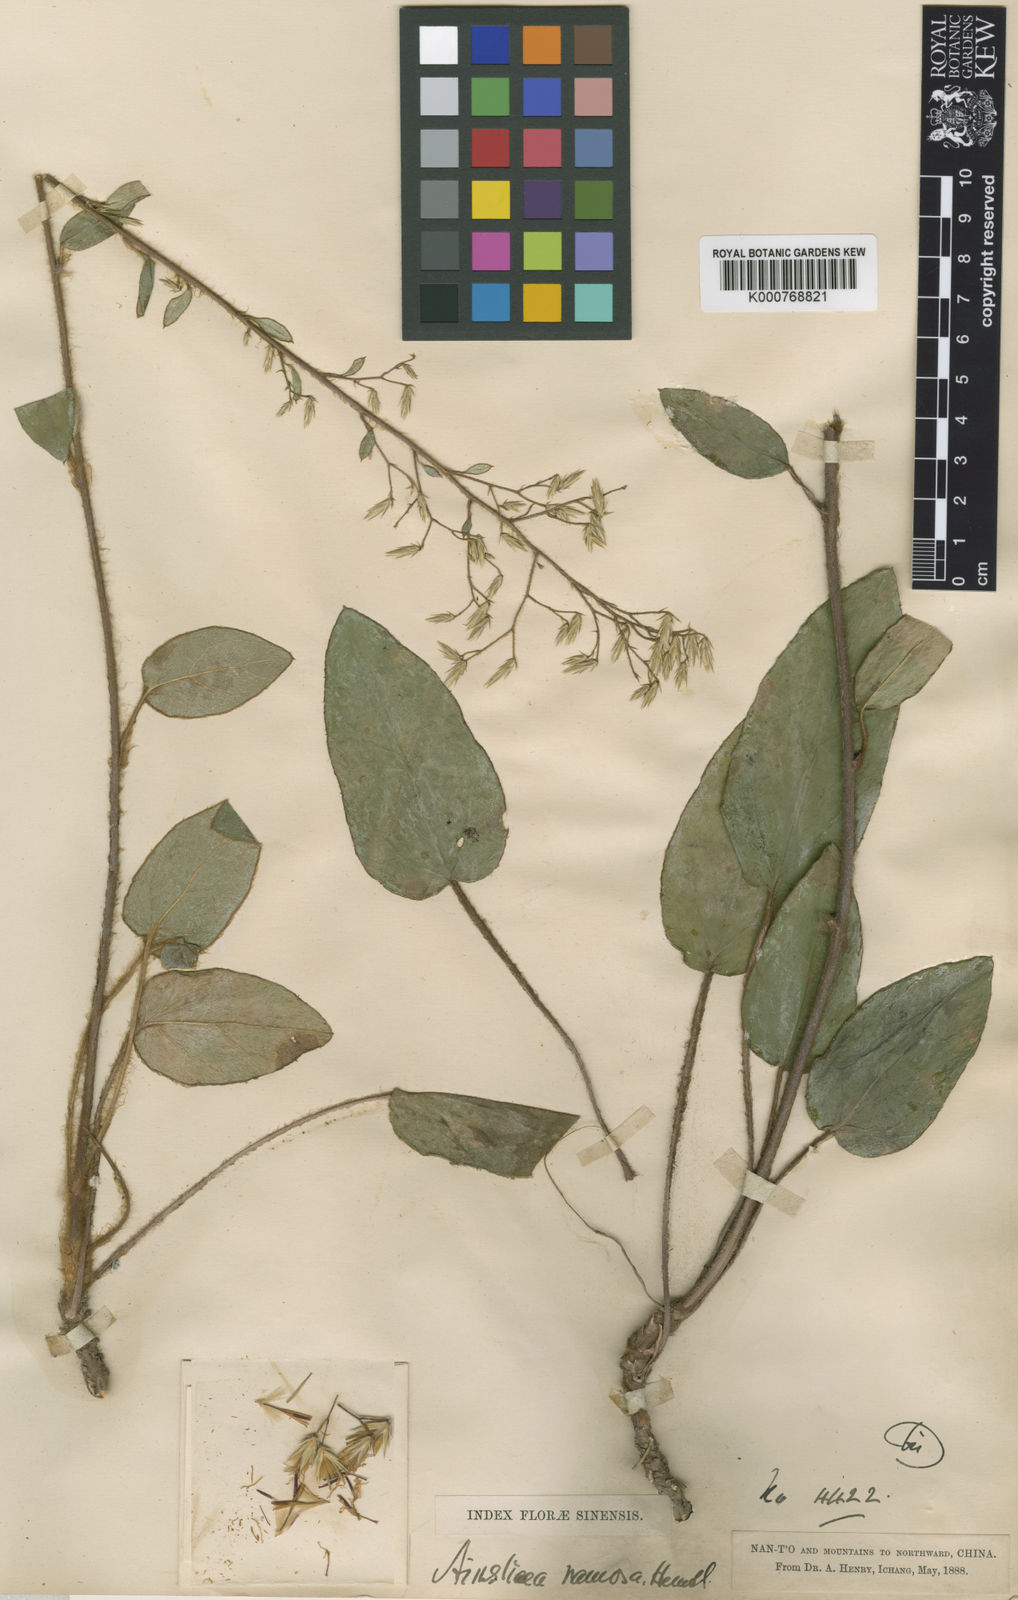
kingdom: Plantae
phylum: Tracheophyta
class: Magnoliopsida
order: Asterales
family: Asteraceae
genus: Ainsliaea
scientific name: Ainsliaea ramosa
